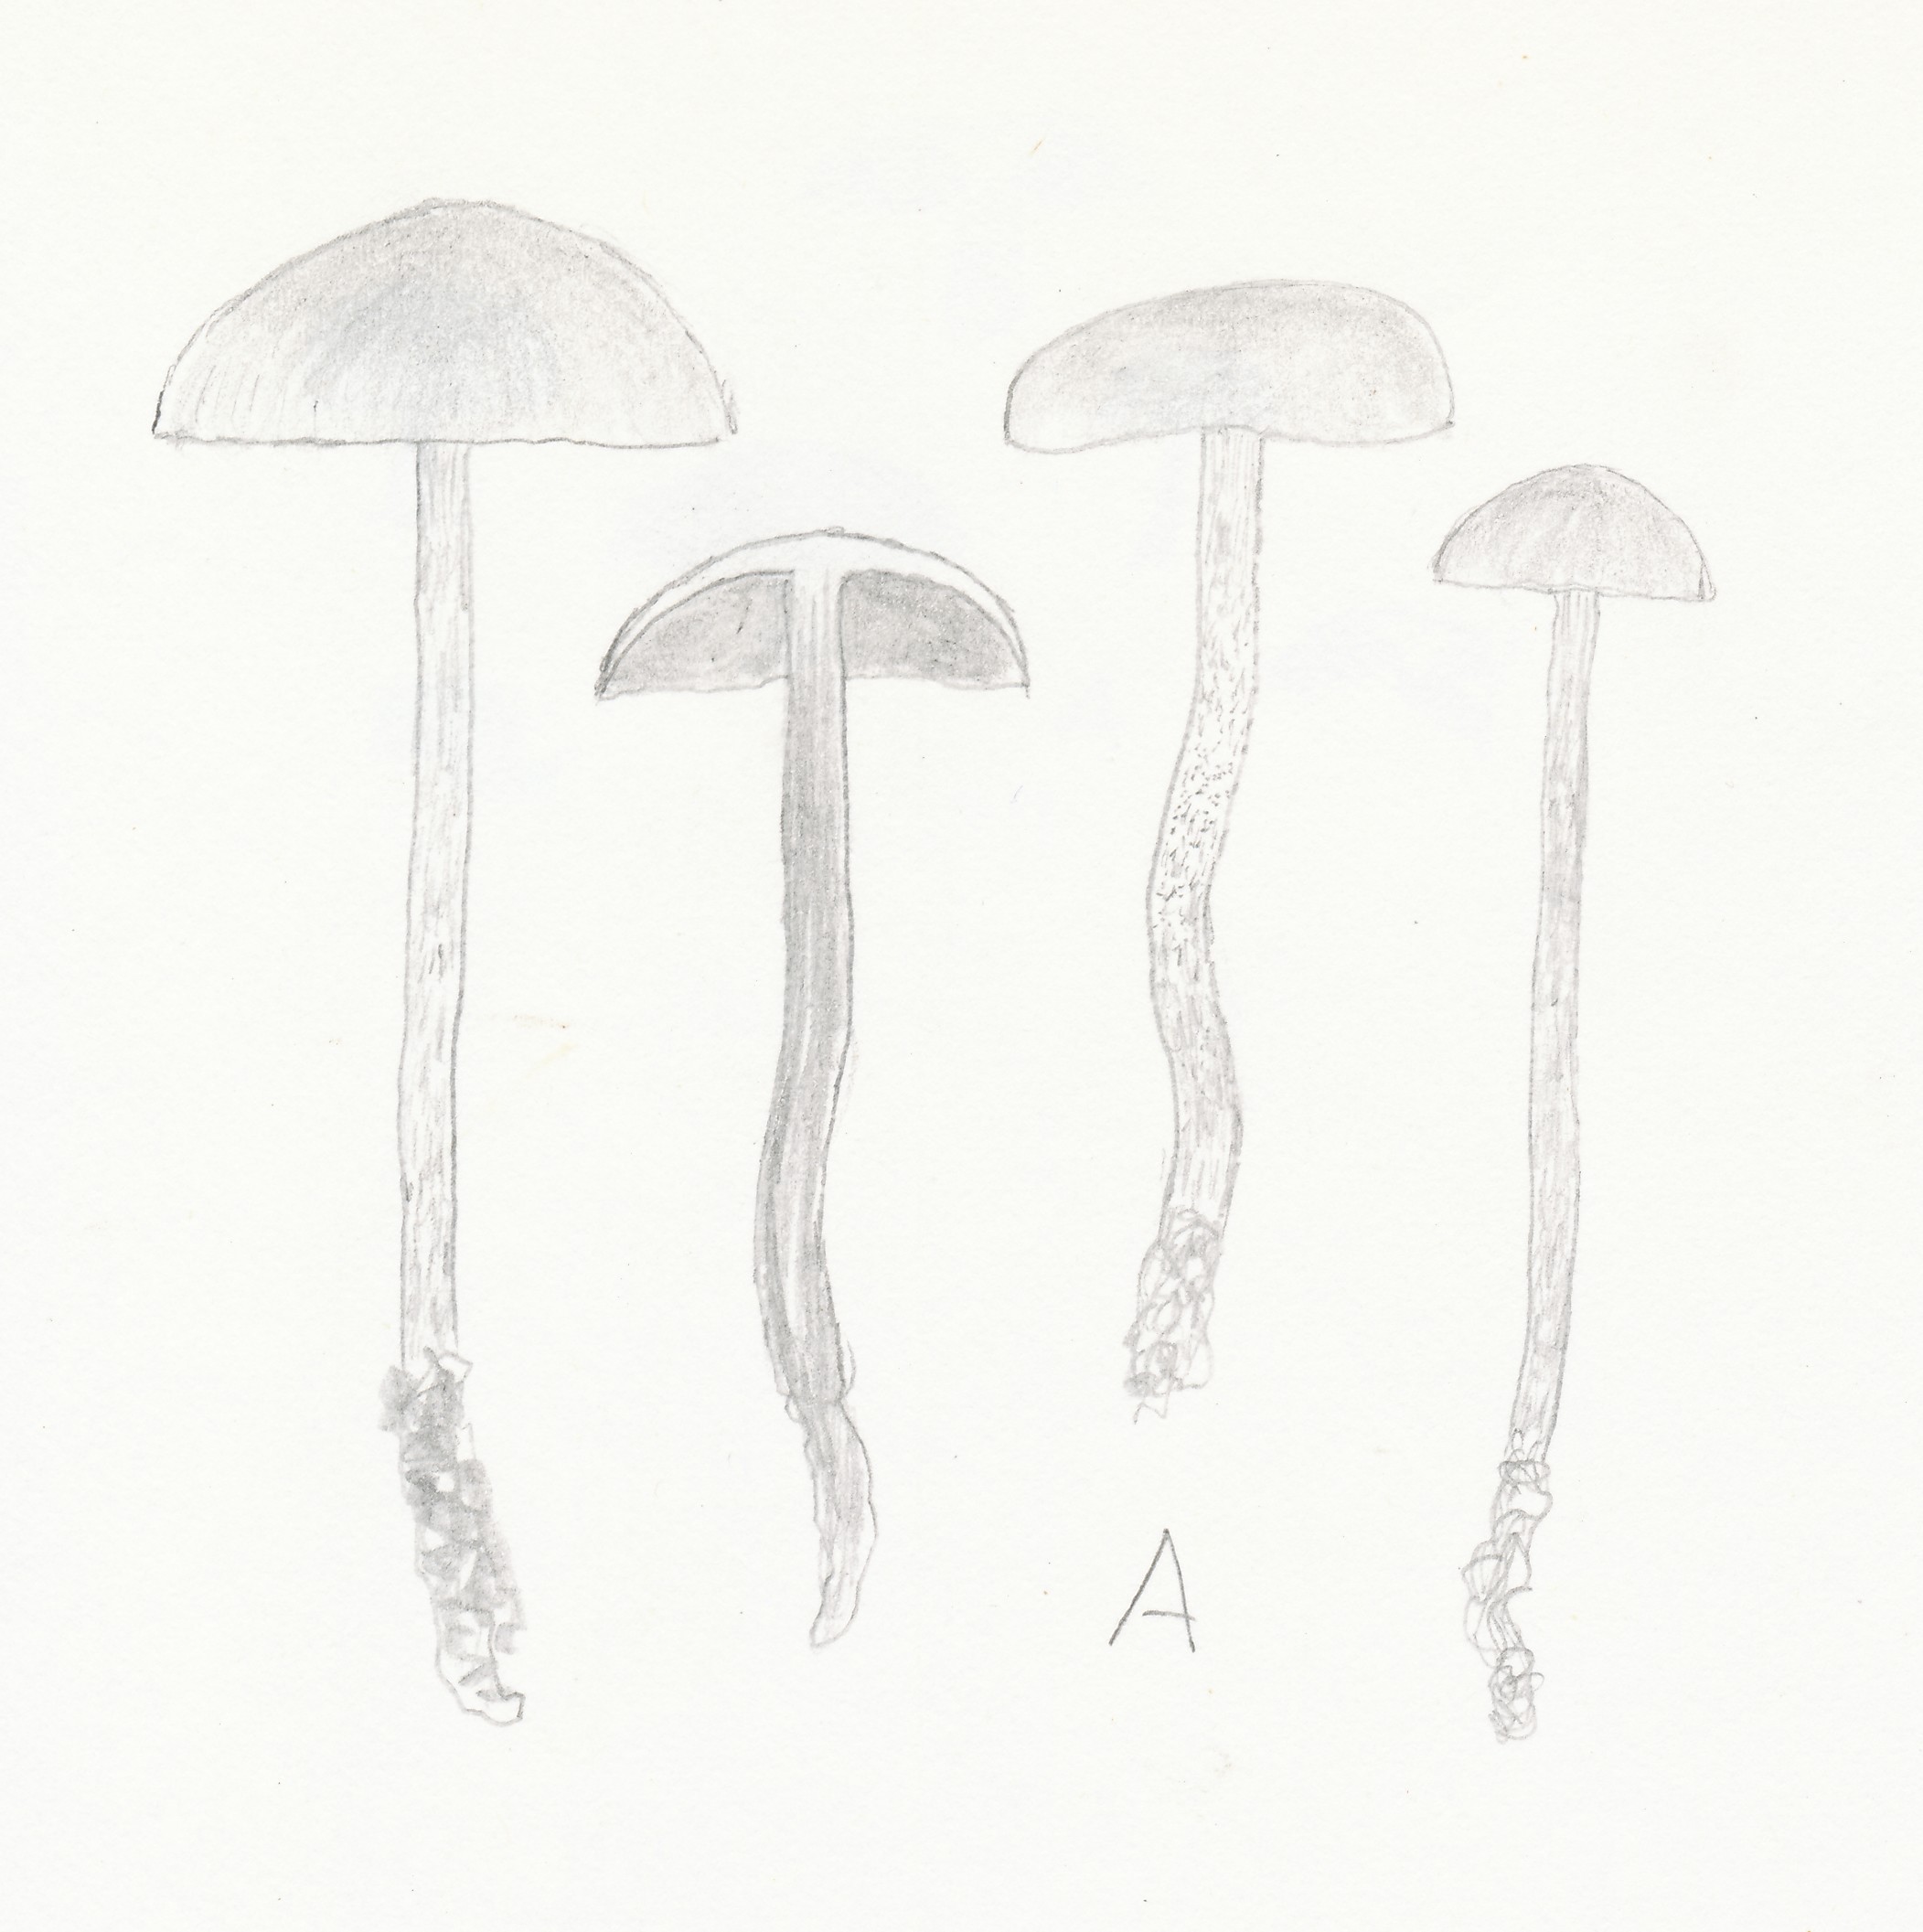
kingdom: Fungi
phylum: Basidiomycota
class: Agaricomycetes
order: Agaricales
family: Strophariaceae
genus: Deconica
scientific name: Deconica montana
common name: rødbrun stråhat
